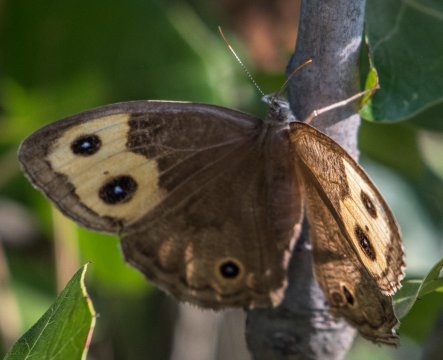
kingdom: Animalia
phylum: Arthropoda
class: Insecta
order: Lepidoptera
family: Nymphalidae
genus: Cercyonis
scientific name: Cercyonis pegala
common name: Common Wood-Nymph
